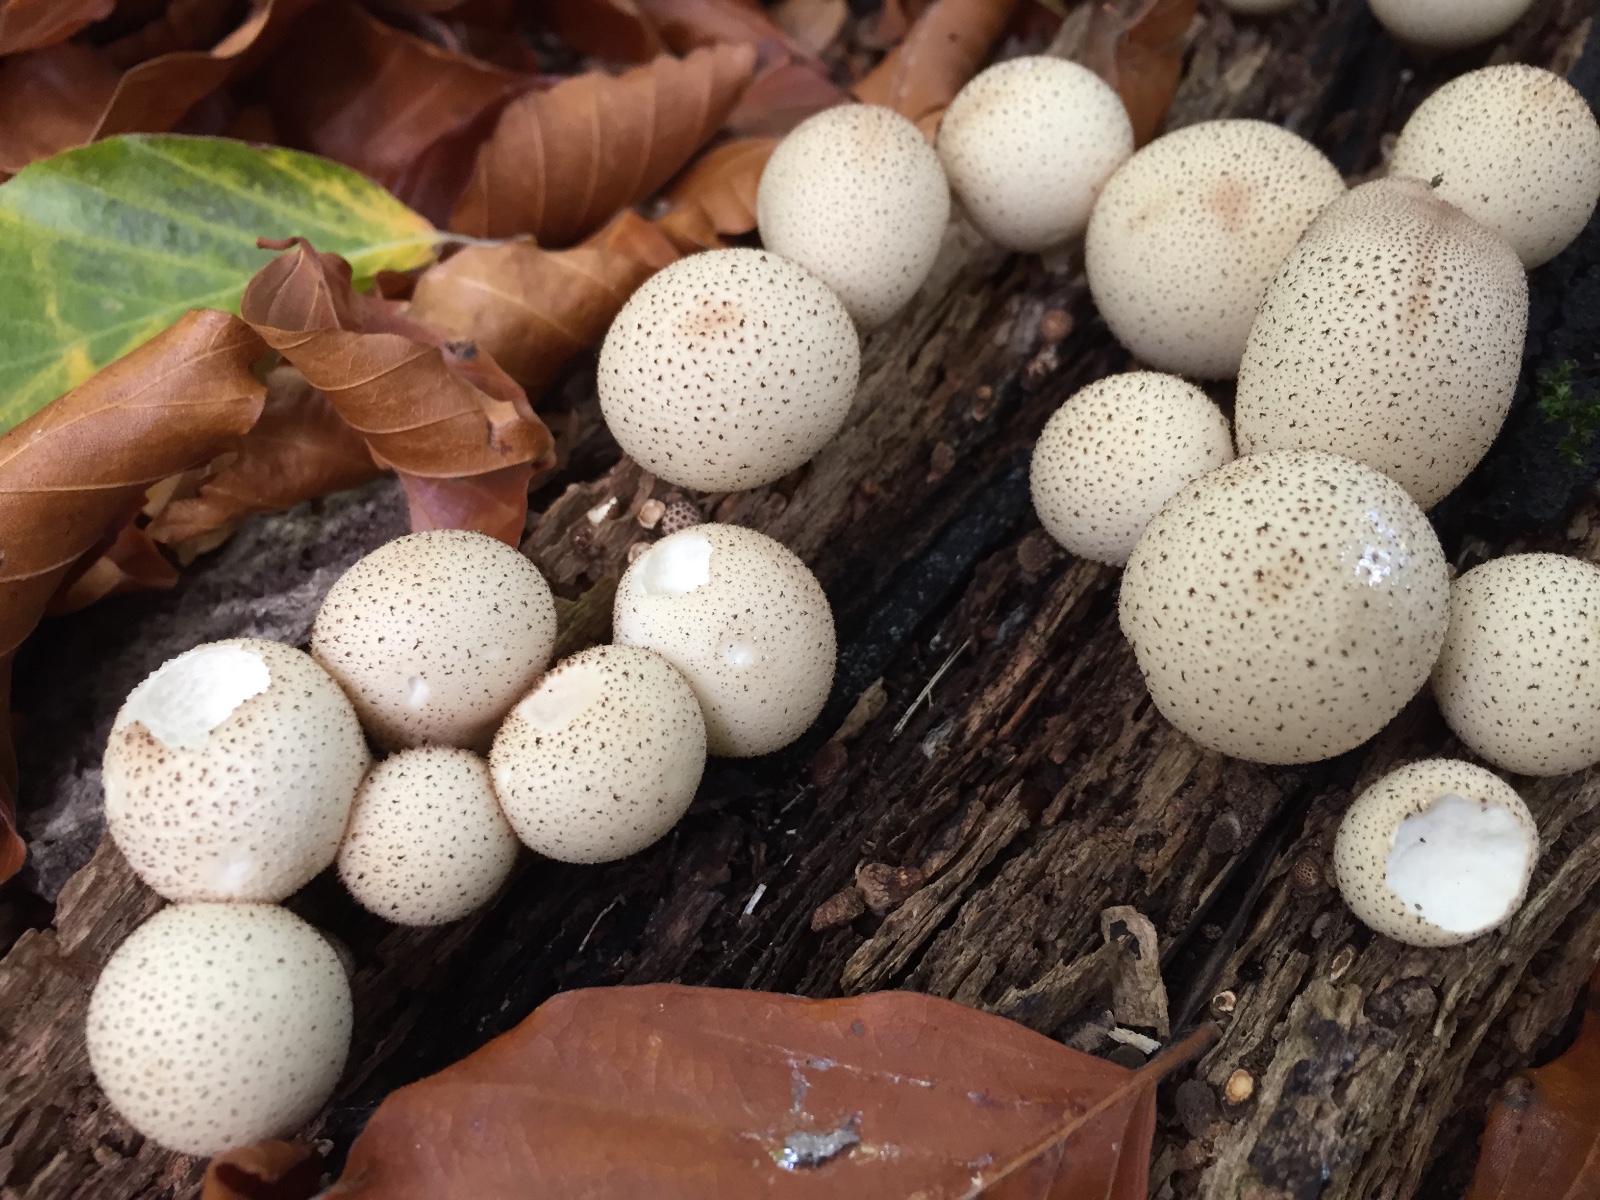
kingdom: Fungi
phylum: Basidiomycota
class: Agaricomycetes
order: Agaricales
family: Lycoperdaceae
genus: Apioperdon
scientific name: Apioperdon pyriforme
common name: pære-støvbold
